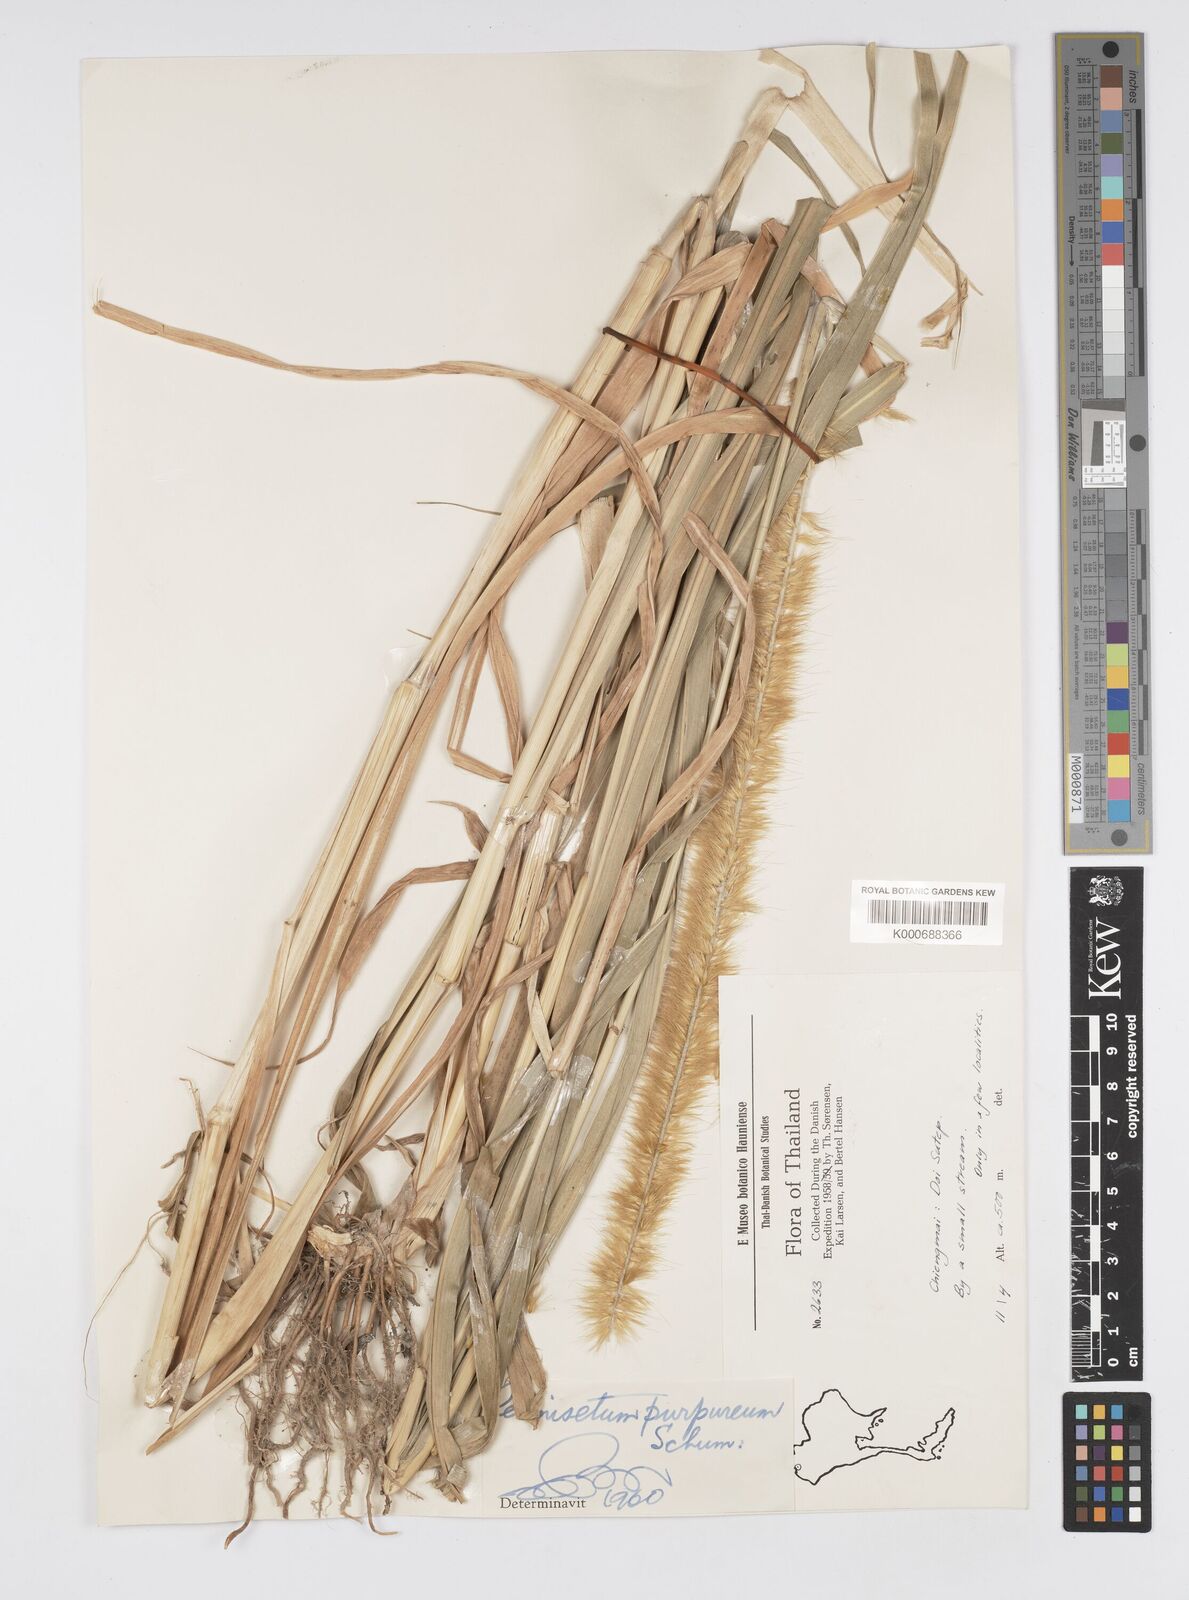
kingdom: Plantae
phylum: Tracheophyta
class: Liliopsida
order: Poales
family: Poaceae
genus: Cenchrus
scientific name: Cenchrus purpureus
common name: Elephant grass
